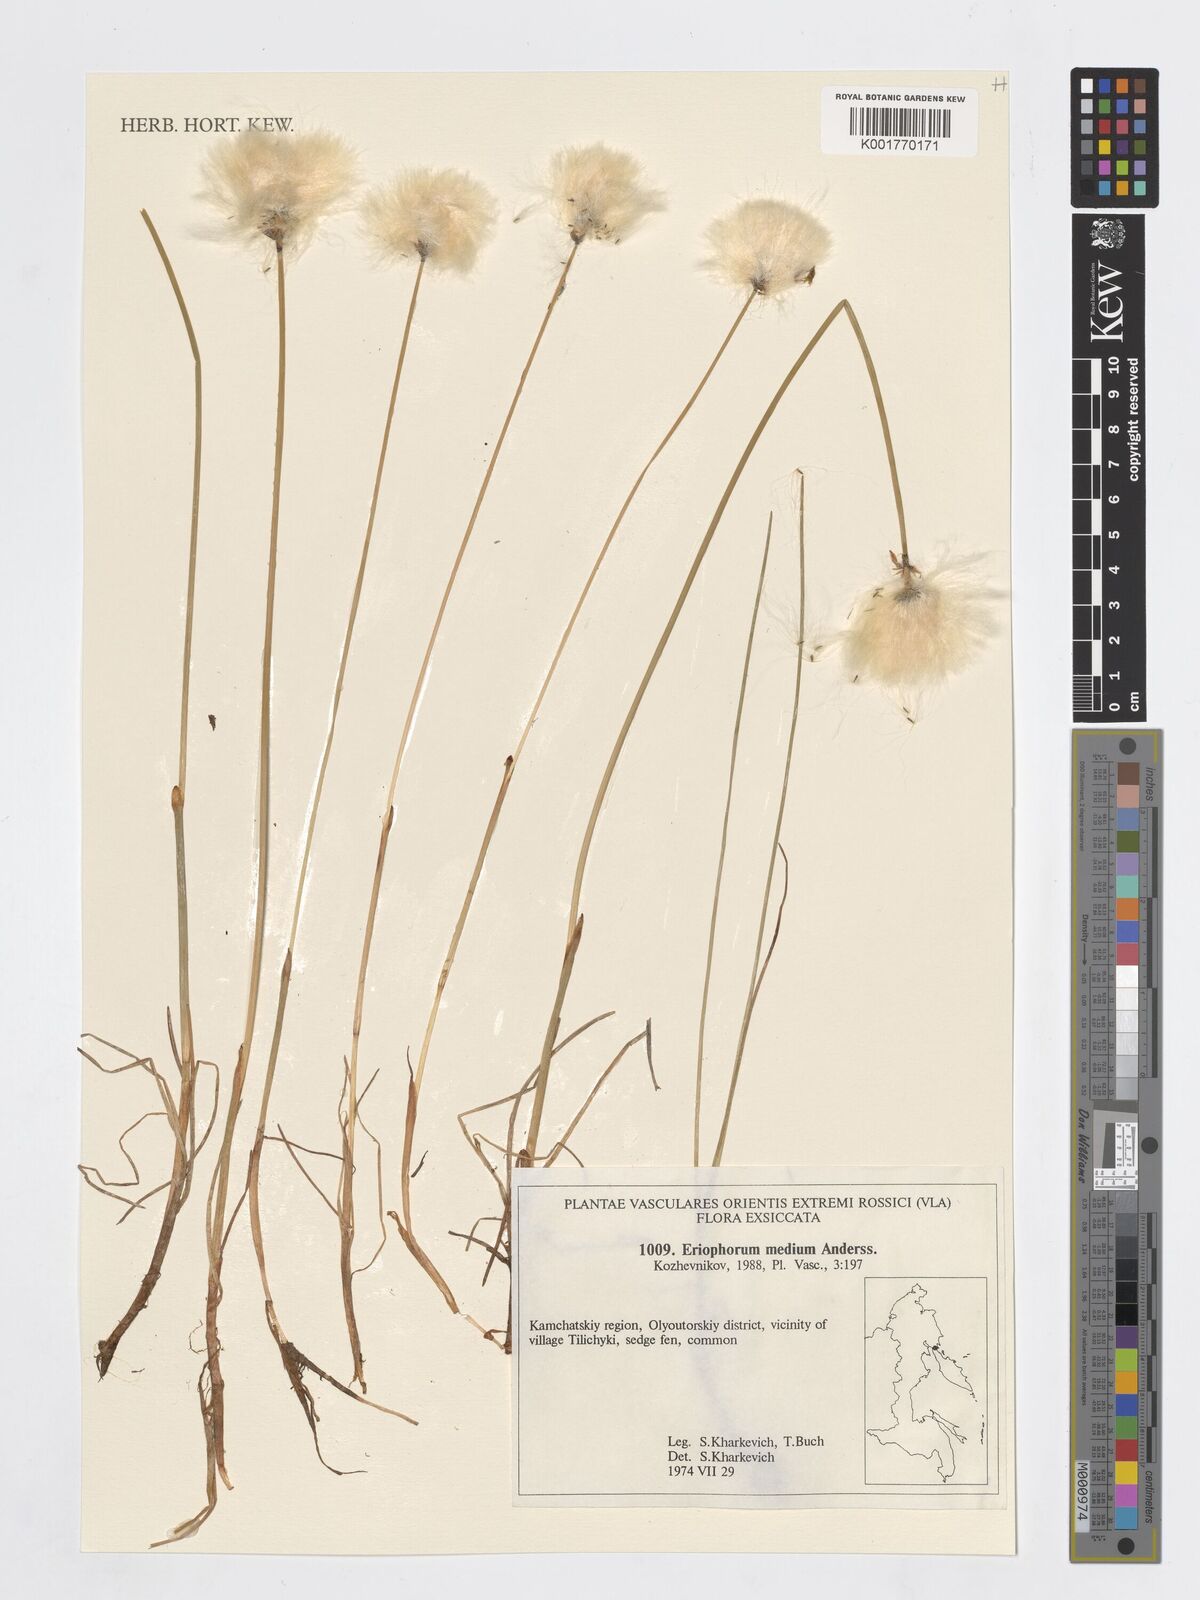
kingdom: Plantae
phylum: Tracheophyta
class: Liliopsida
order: Poales
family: Cyperaceae
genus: Eriophorum
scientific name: Eriophorum medium
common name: Intermediate cottongrass
